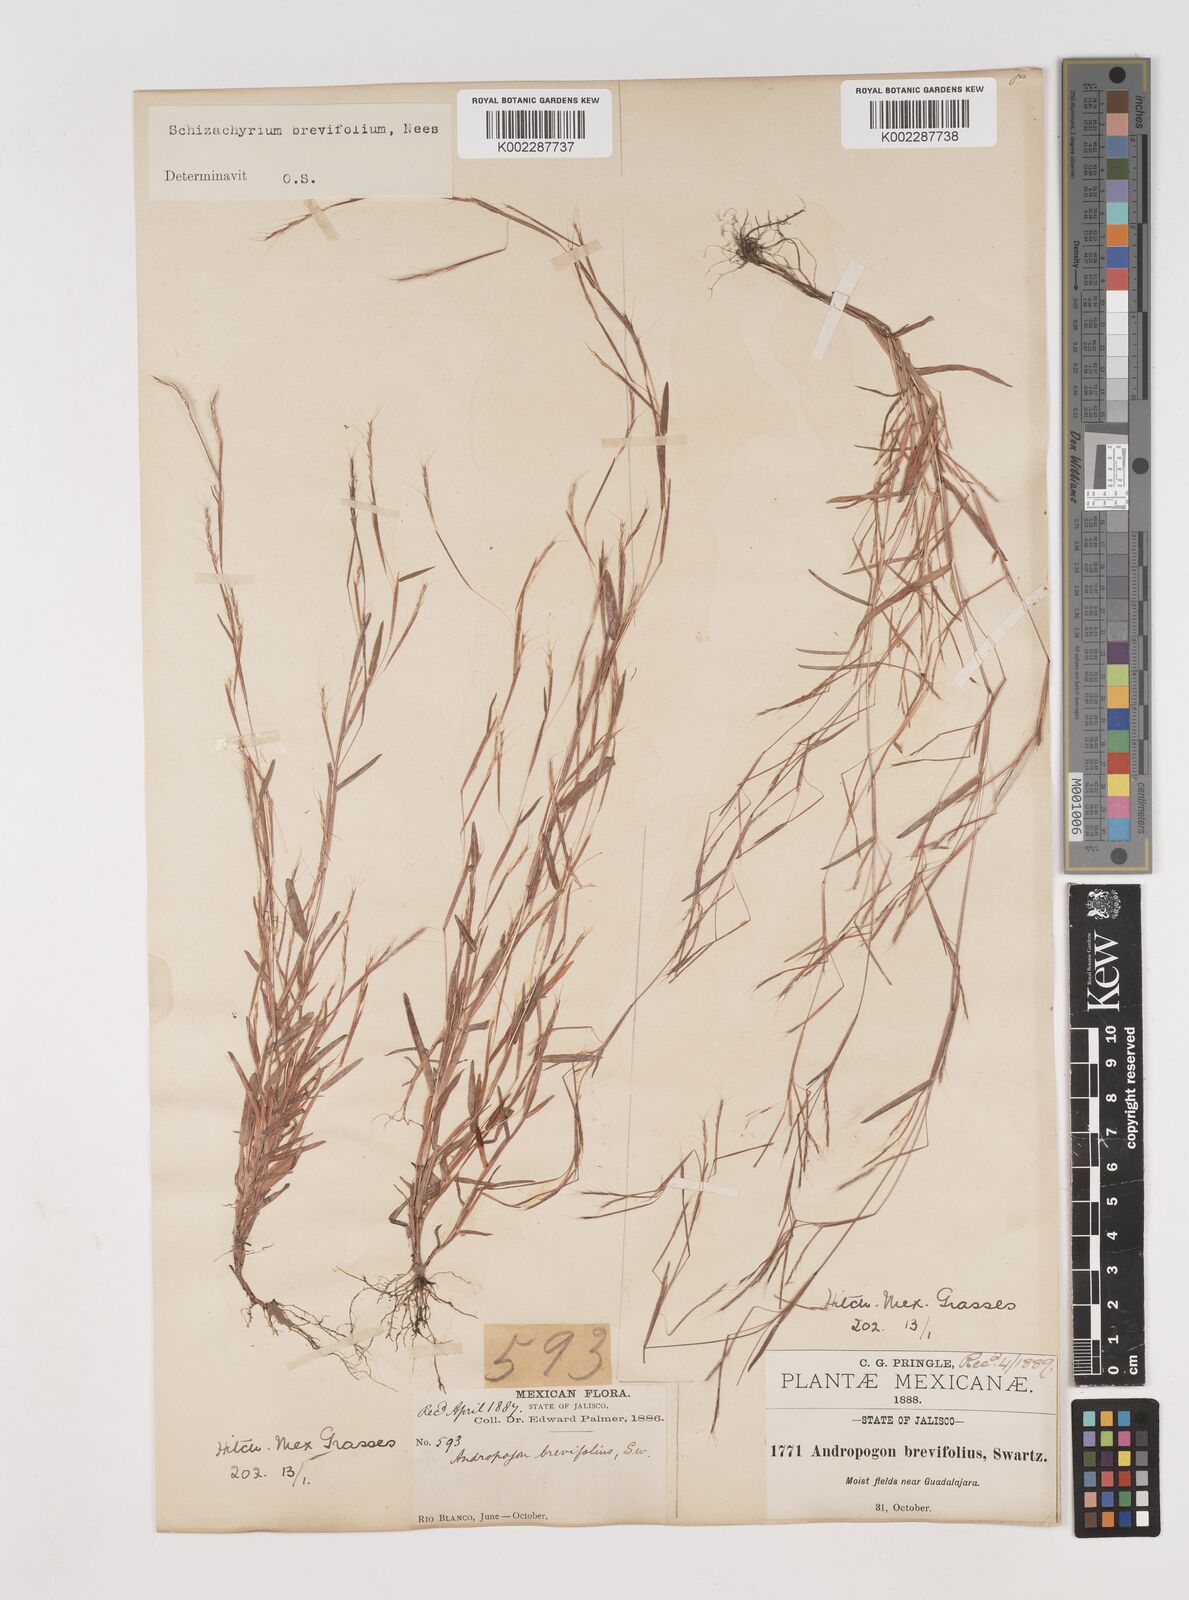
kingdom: Plantae
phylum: Tracheophyta
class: Liliopsida
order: Poales
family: Poaceae
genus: Schizachyrium
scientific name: Schizachyrium brevifolium
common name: Serillo dulce
